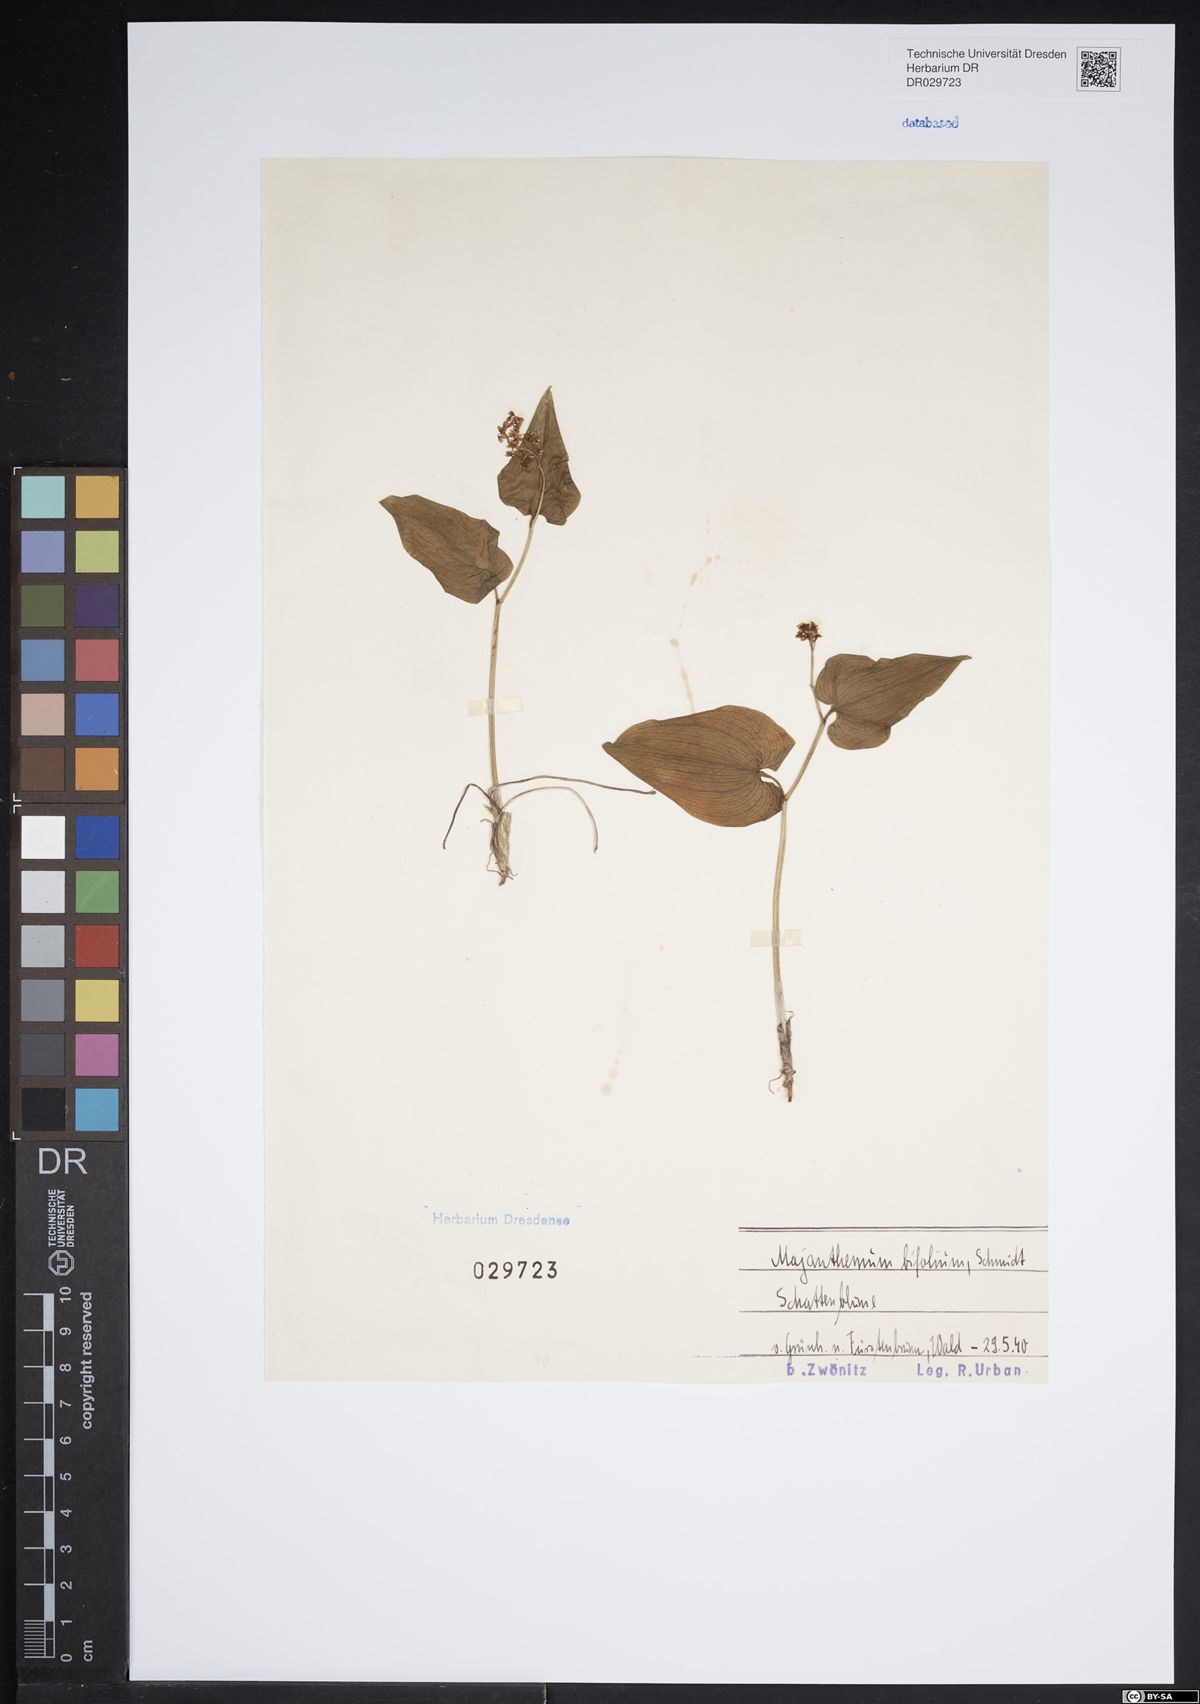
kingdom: Plantae
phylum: Tracheophyta
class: Liliopsida
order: Asparagales
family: Asparagaceae
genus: Maianthemum
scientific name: Maianthemum bifolium
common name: May lily
